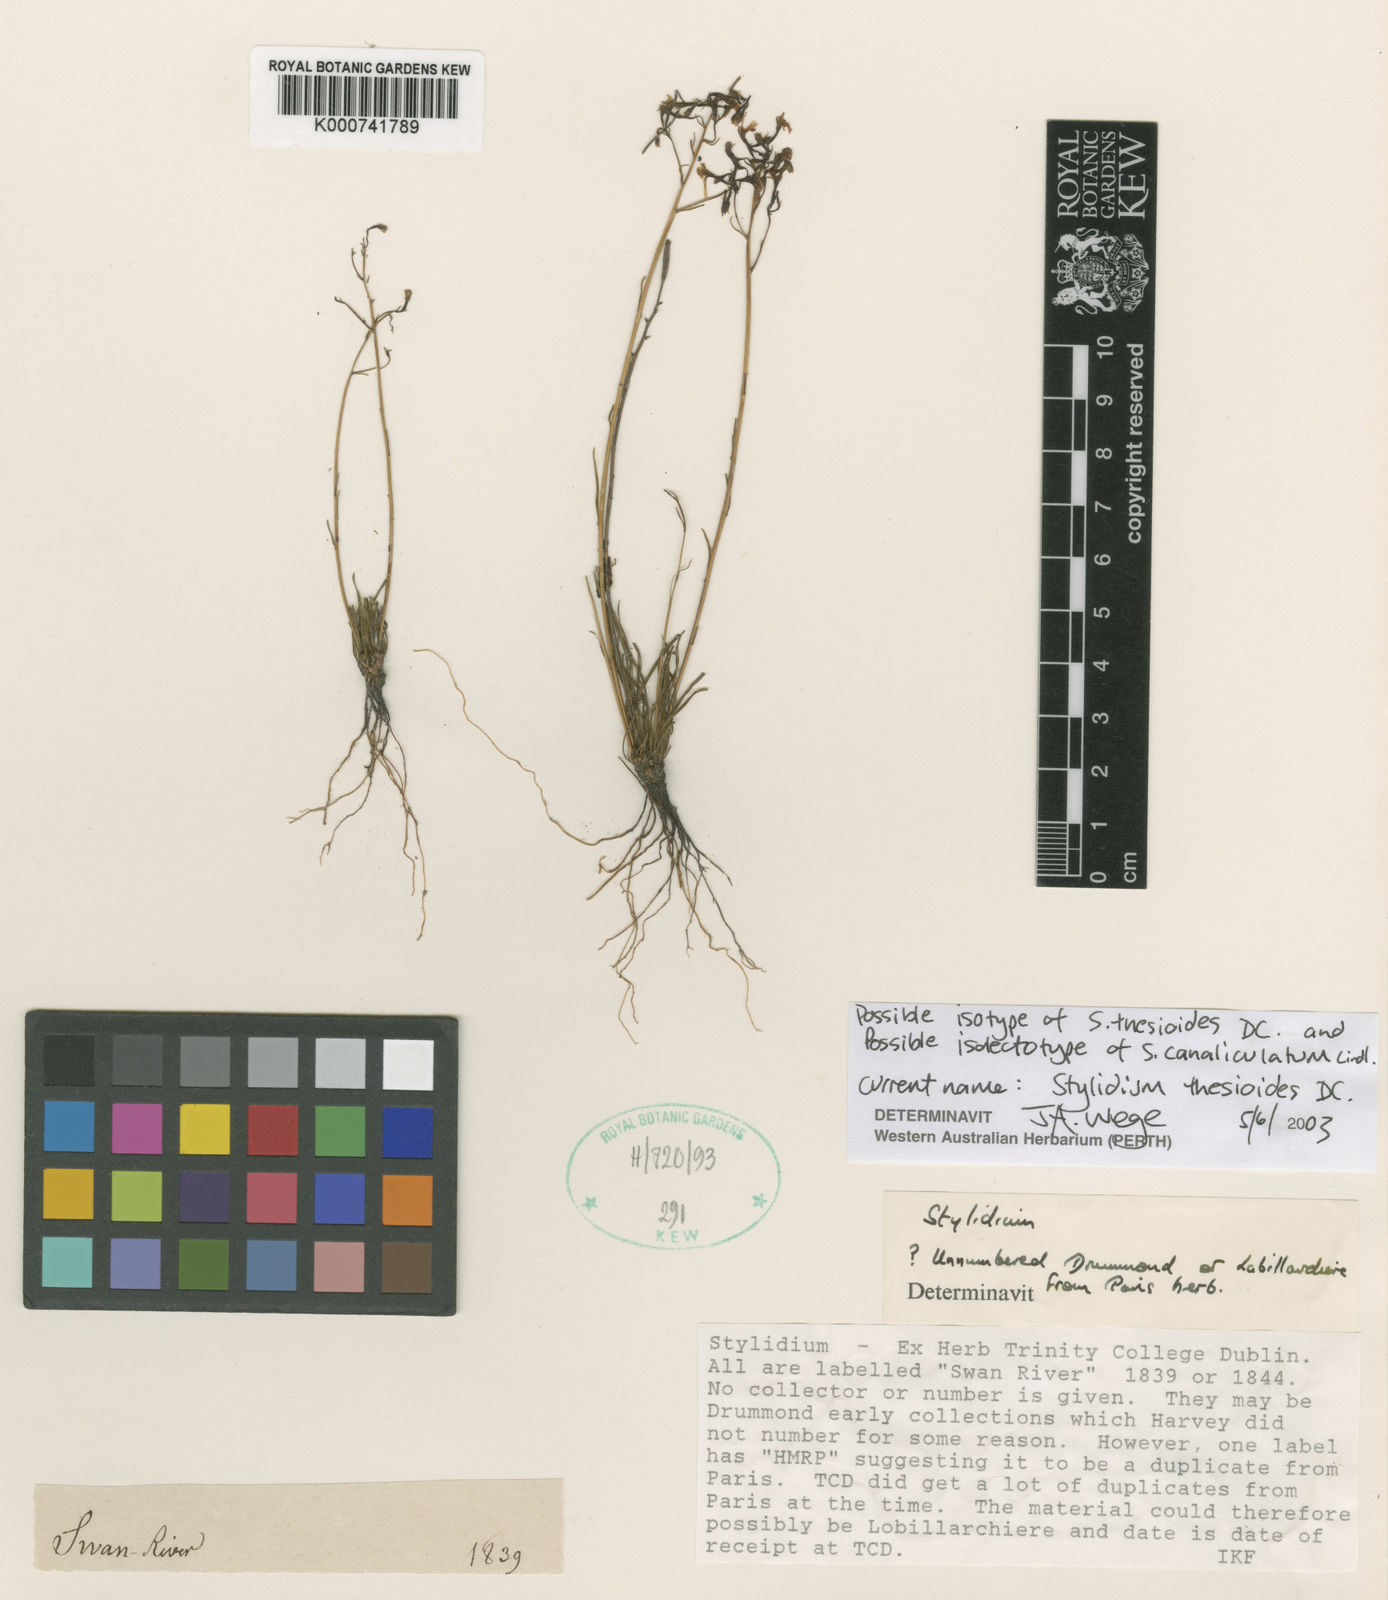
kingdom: Plantae
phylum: Tracheophyta
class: Magnoliopsida
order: Asterales
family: Stylidiaceae
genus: Stylidium
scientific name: Stylidium thesioides
